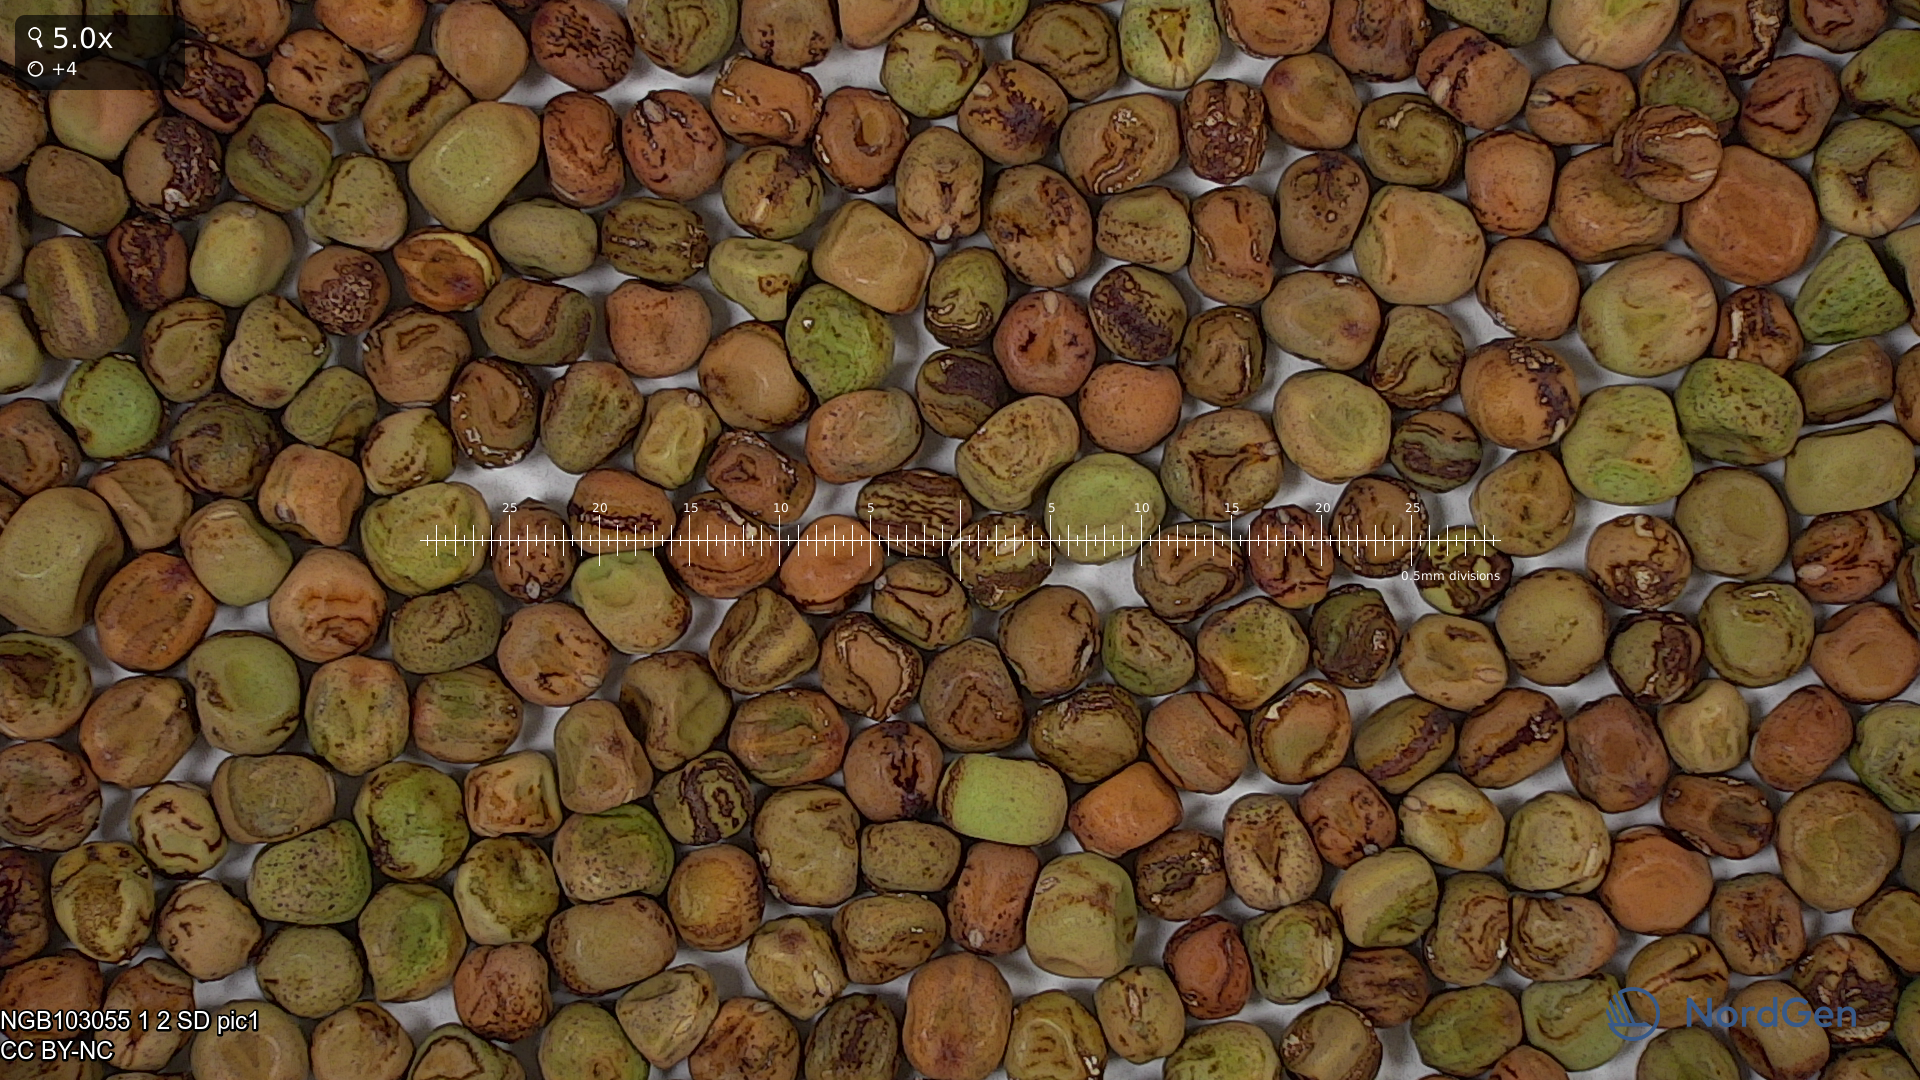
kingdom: Plantae
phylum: Tracheophyta
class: Magnoliopsida
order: Fabales
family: Fabaceae
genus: Lathyrus
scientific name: Lathyrus oleraceus
